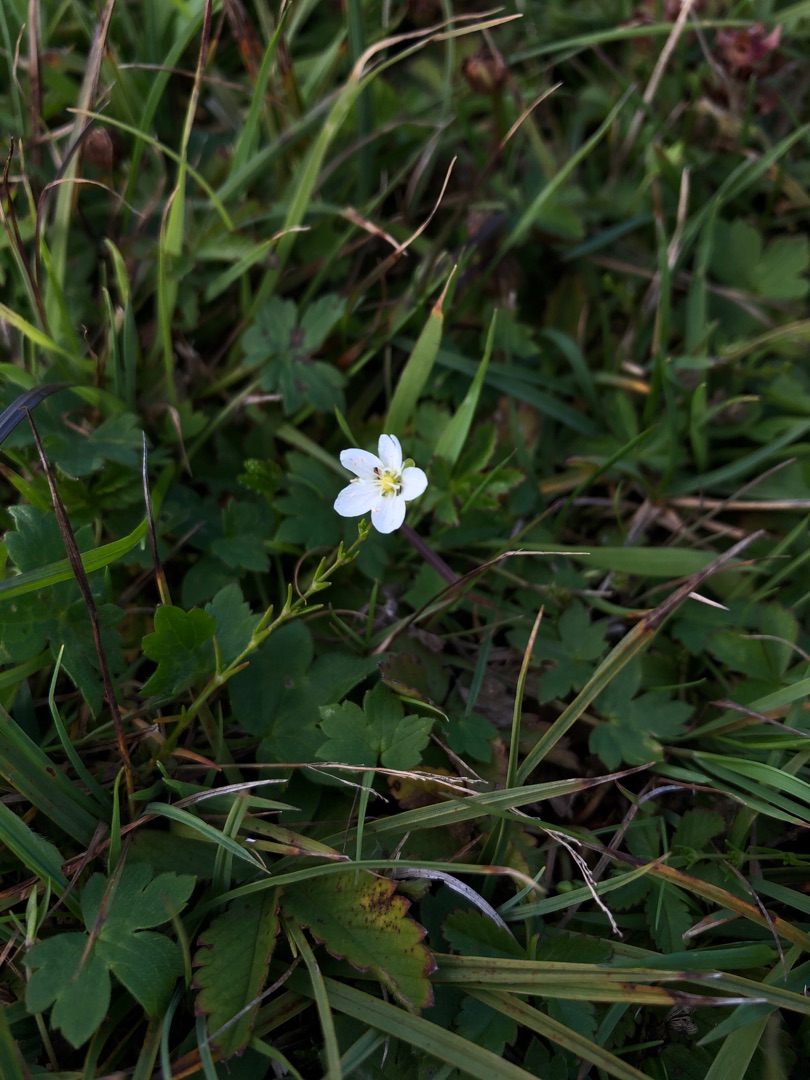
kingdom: Plantae
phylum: Tracheophyta
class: Magnoliopsida
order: Caryophyllales
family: Caryophyllaceae
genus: Sagina
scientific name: Sagina nodosa
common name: Knude-firling
